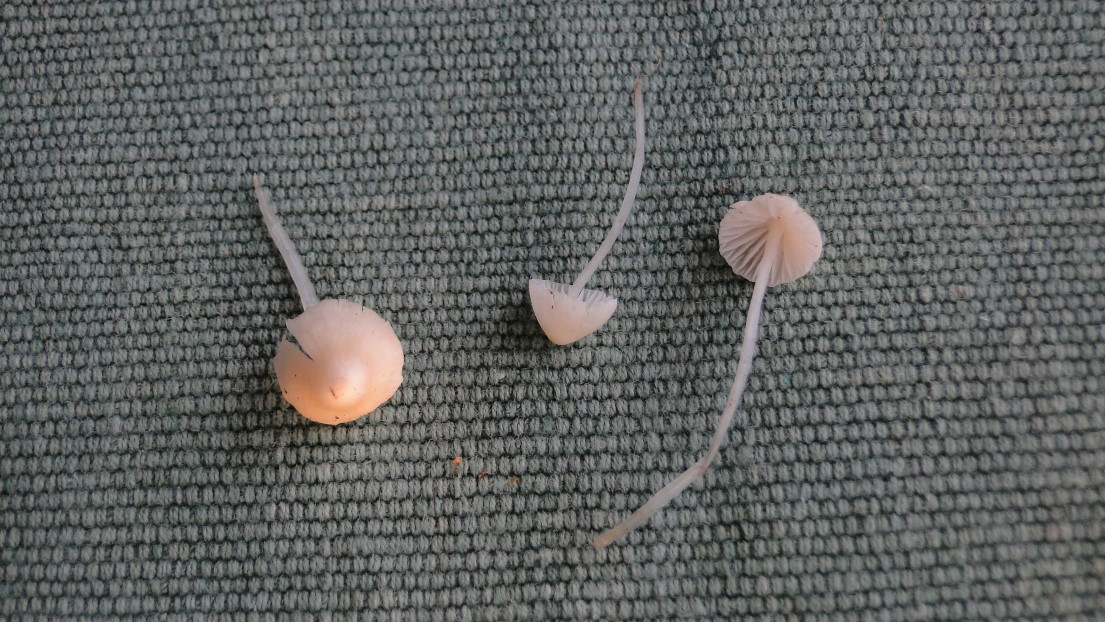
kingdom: Fungi
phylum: Basidiomycota
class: Agaricomycetes
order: Agaricales
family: Mycenaceae
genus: Atheniella
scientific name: Atheniella flavoalba
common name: gulhvid huesvamp
